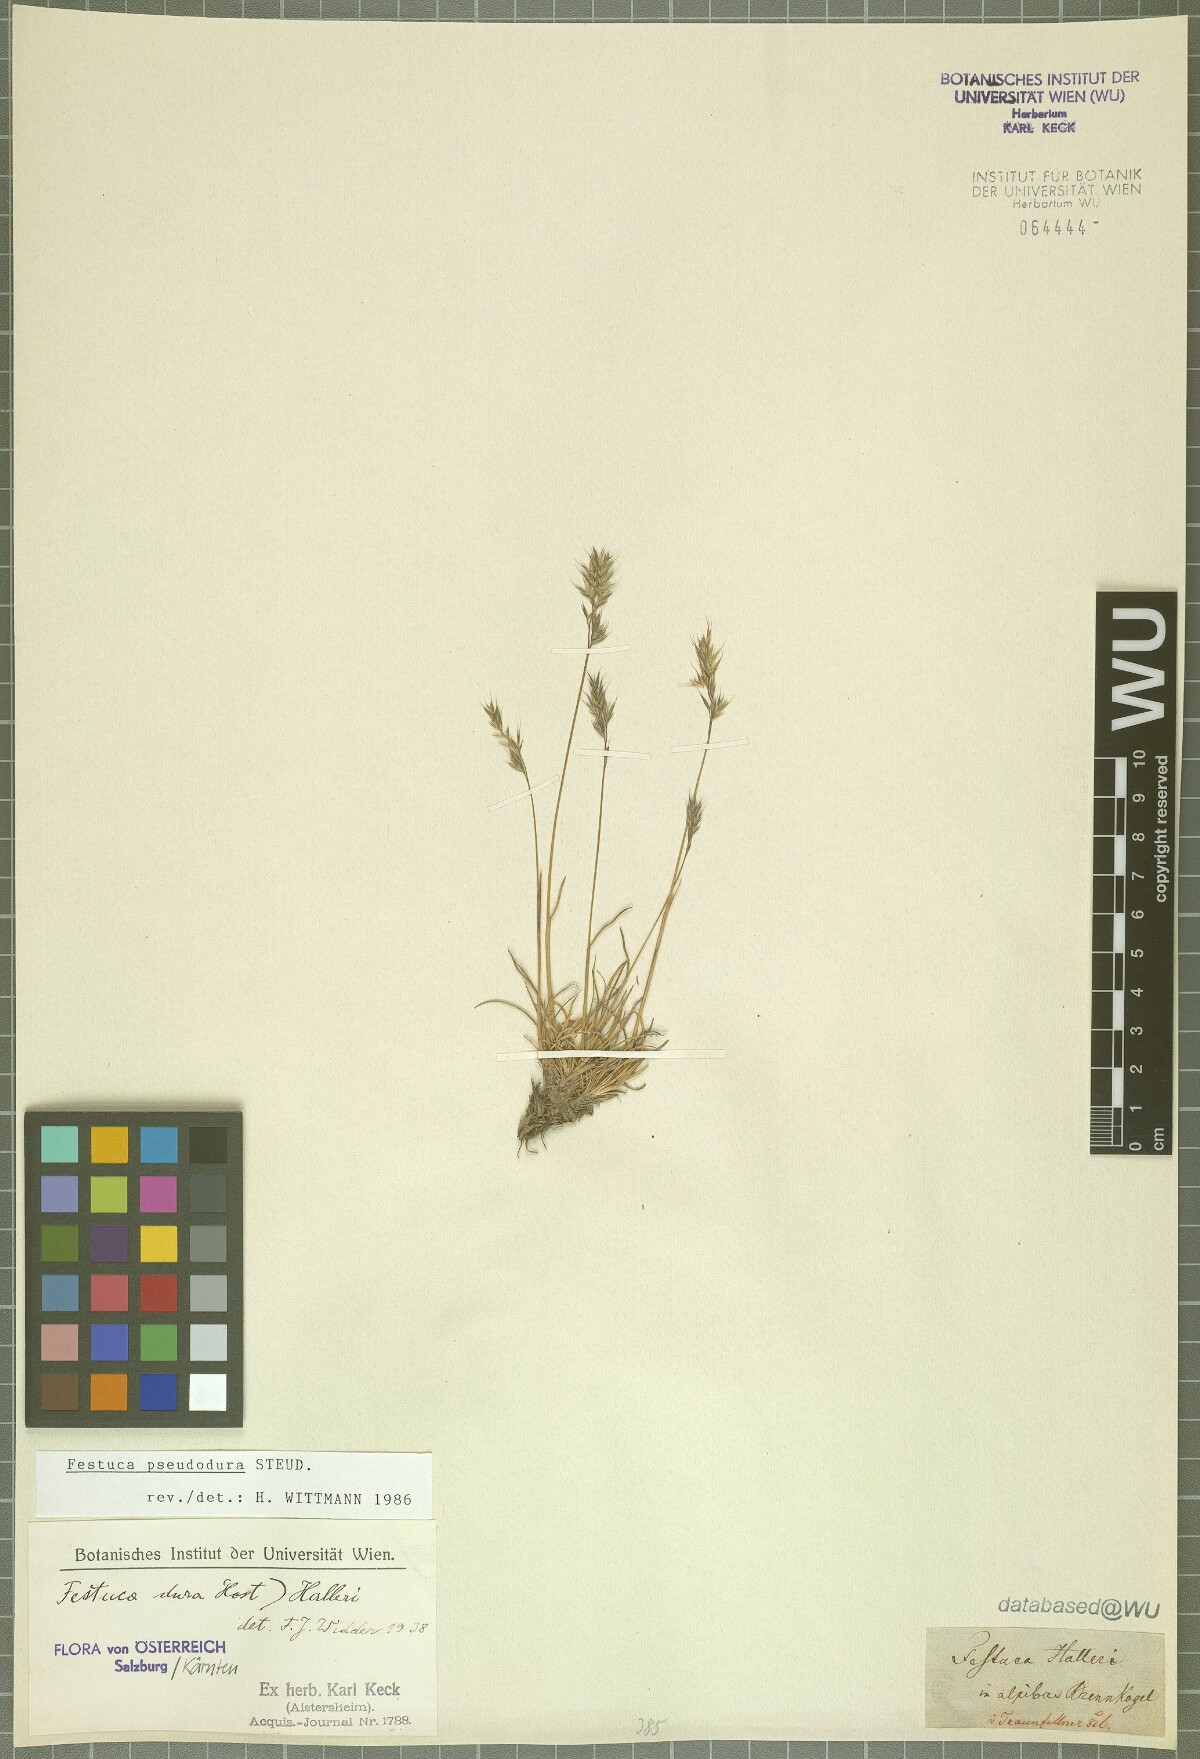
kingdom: Plantae
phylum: Tracheophyta
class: Liliopsida
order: Poales
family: Poaceae
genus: Festuca
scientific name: Festuca pseudodura
